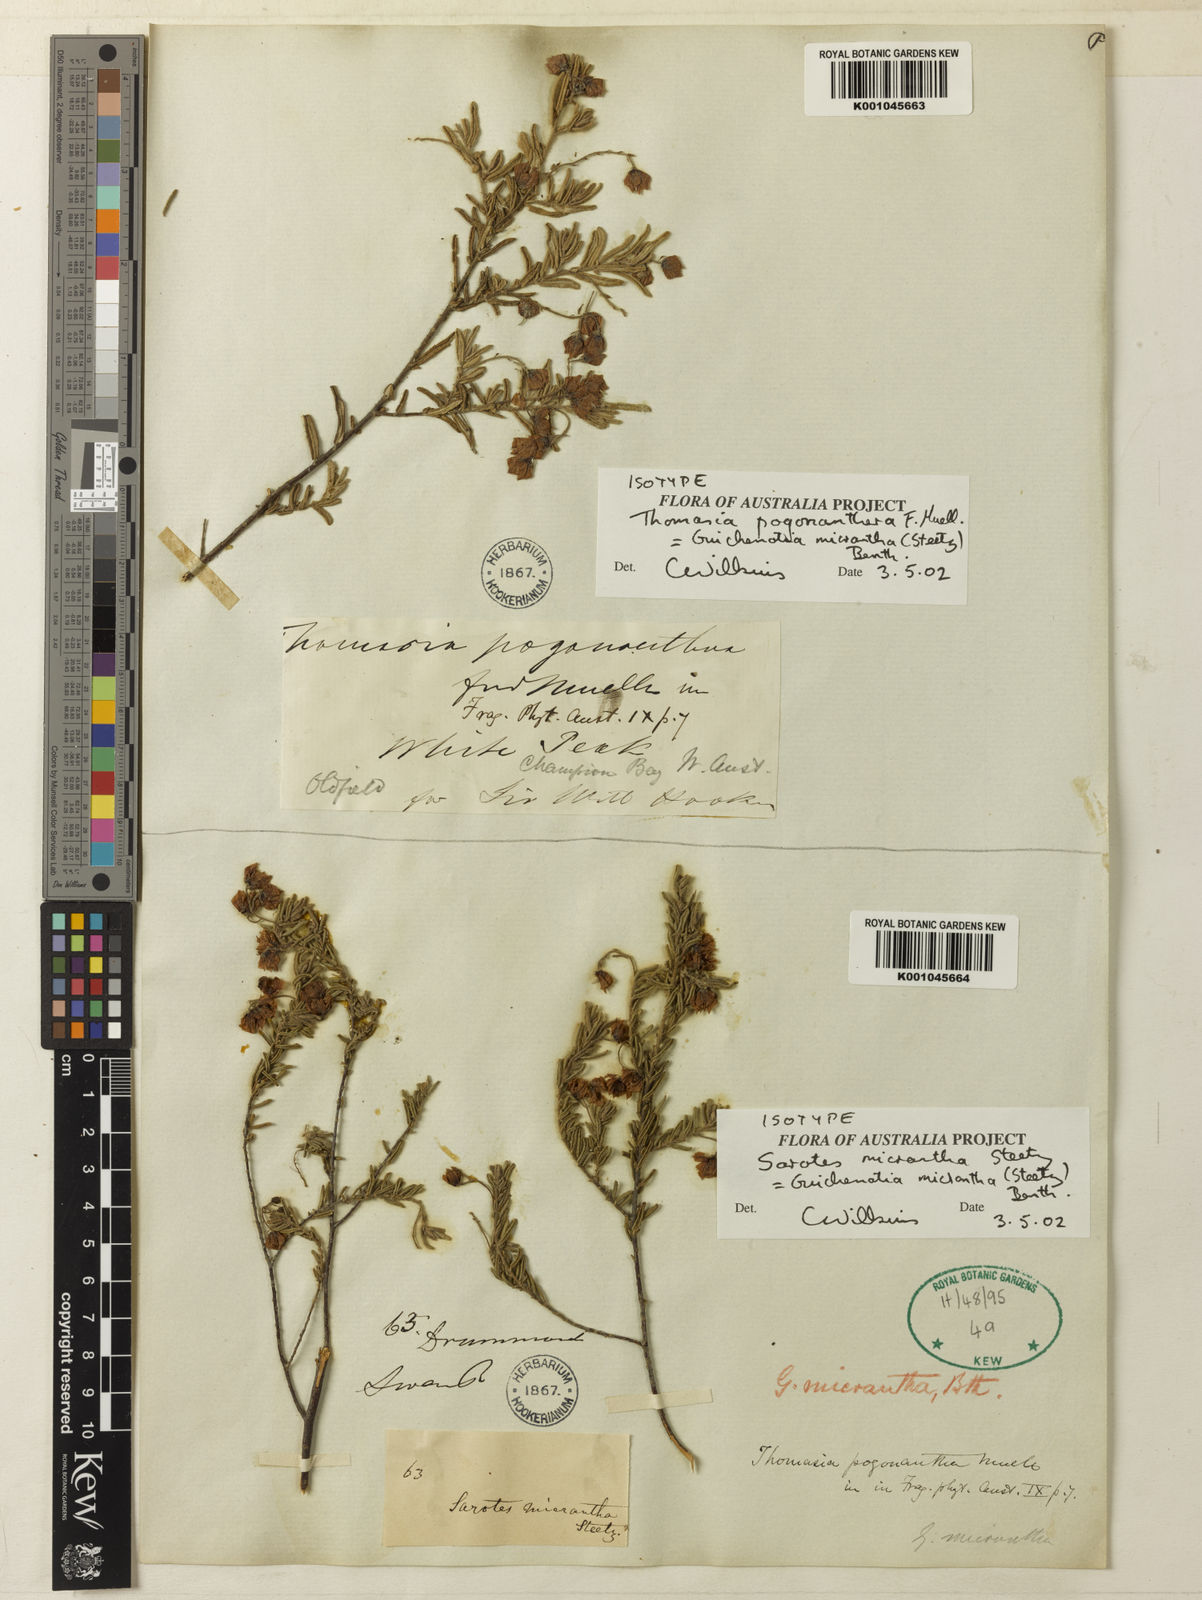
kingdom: Plantae
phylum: Tracheophyta
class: Magnoliopsida
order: Malvales
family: Malvaceae
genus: Guichenotia
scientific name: Guichenotia micrantha
